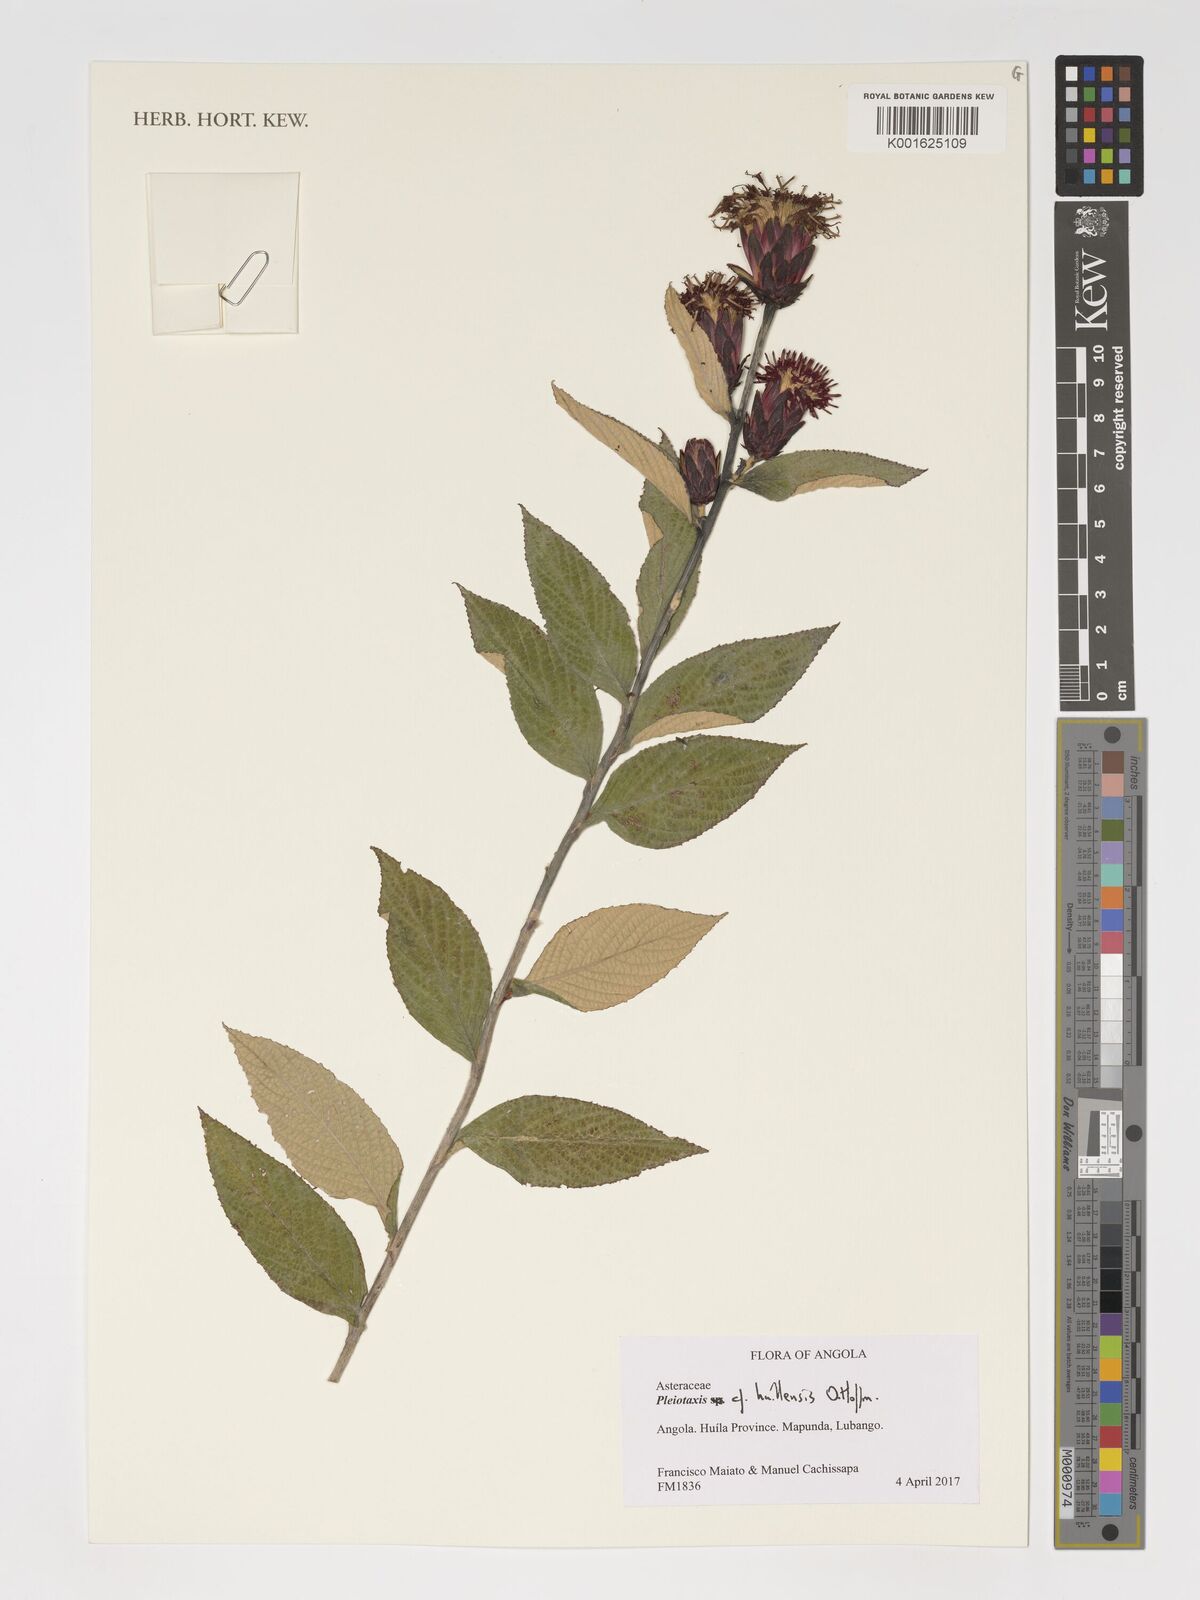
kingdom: Plantae
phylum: Tracheophyta
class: Magnoliopsida
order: Asterales
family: Asteraceae
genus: Pleiotaxis
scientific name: Pleiotaxis huillensis
